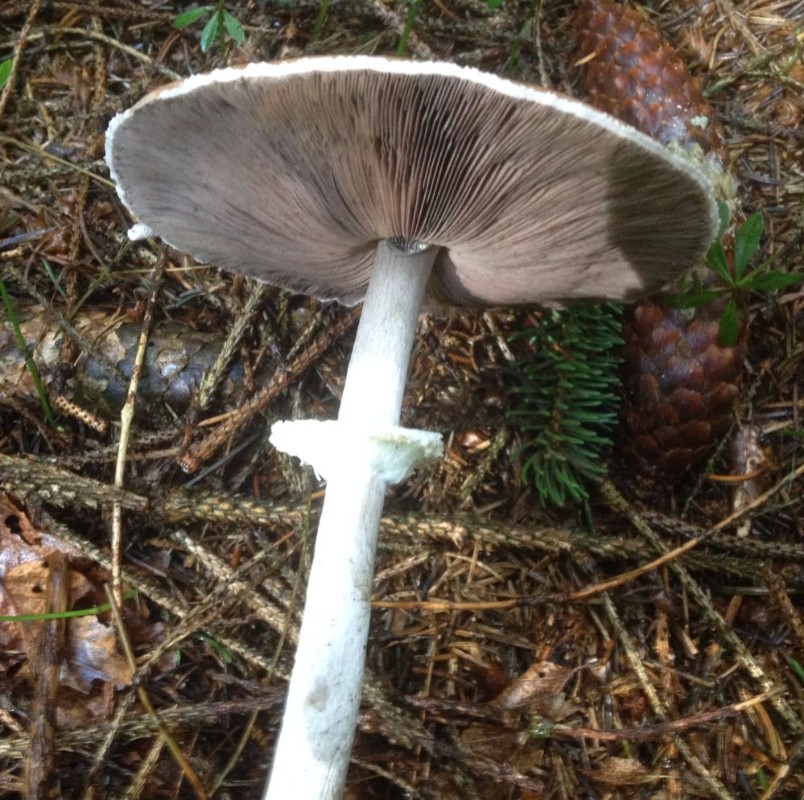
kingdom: Fungi
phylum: Basidiomycota
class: Agaricomycetes
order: Agaricales
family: Agaricaceae
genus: Agaricus
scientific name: Agaricus
